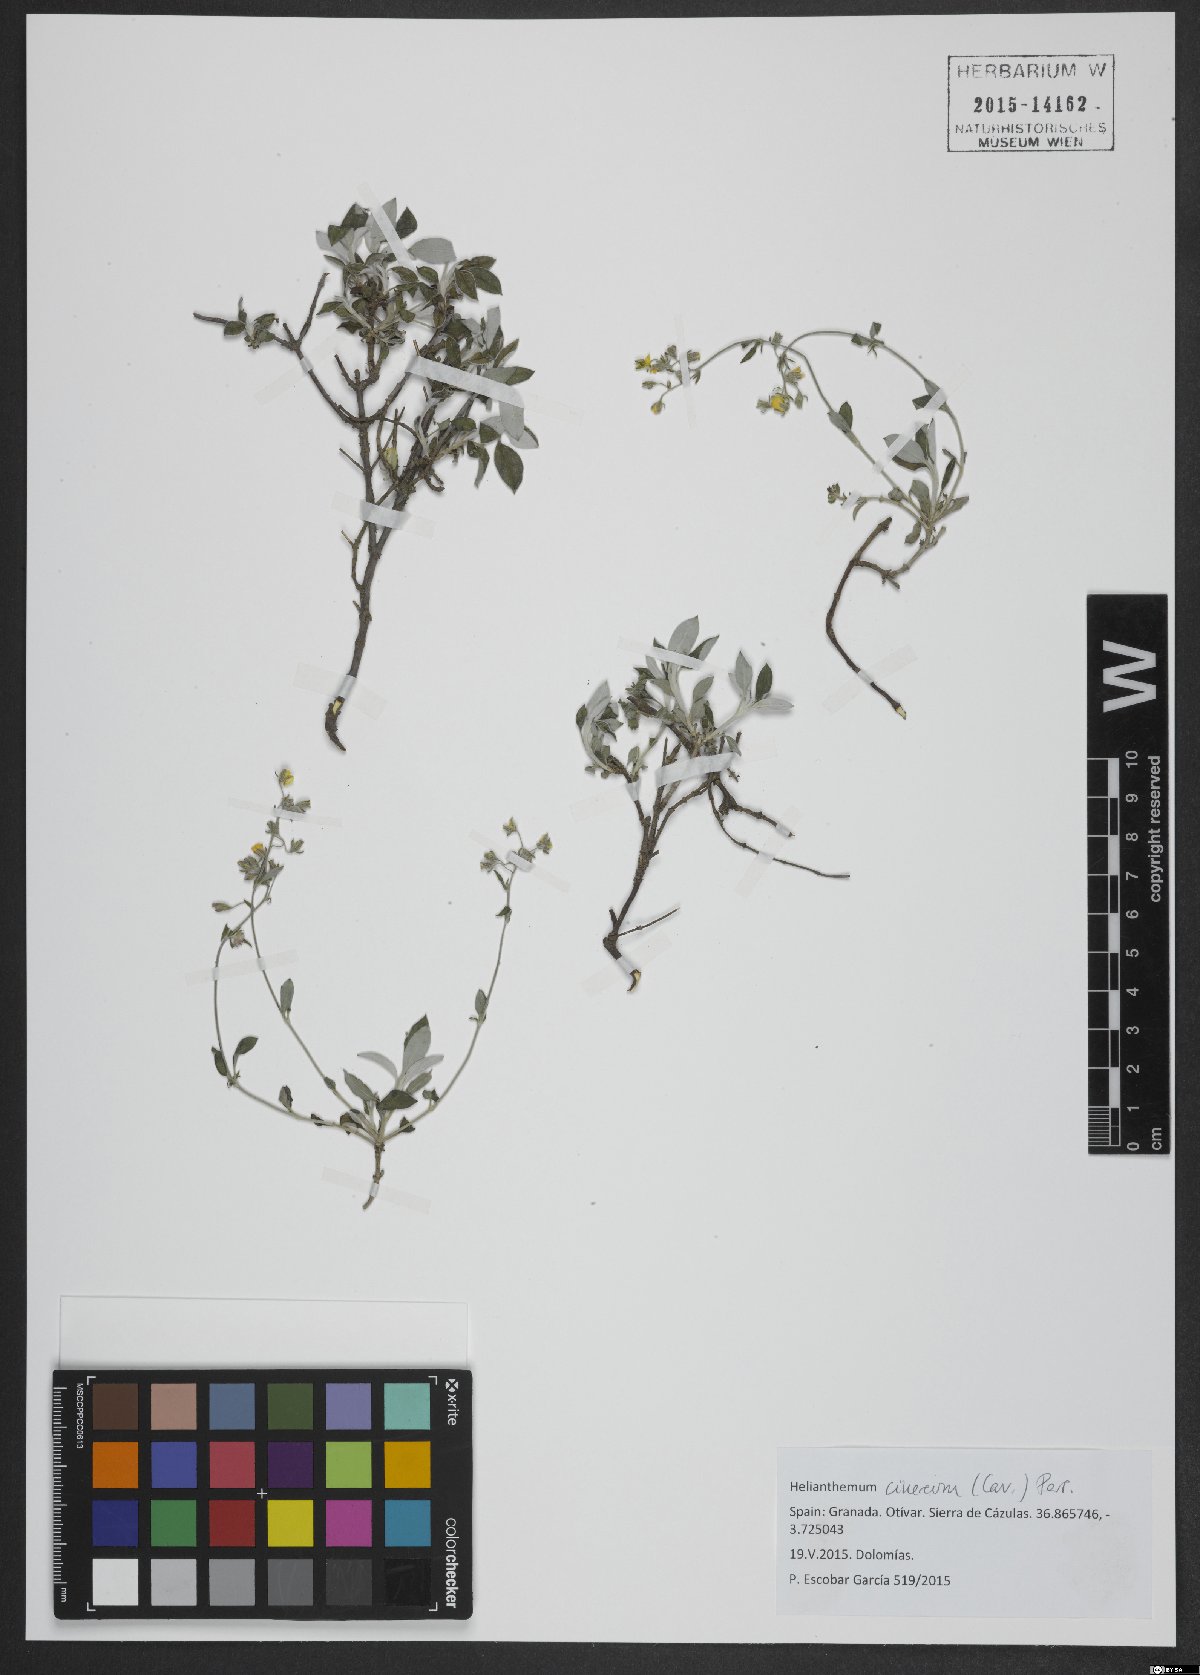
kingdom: Plantae
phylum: Tracheophyta
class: Magnoliopsida
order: Malvales
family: Cistaceae
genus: Helianthemum
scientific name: Helianthemum cinereum
